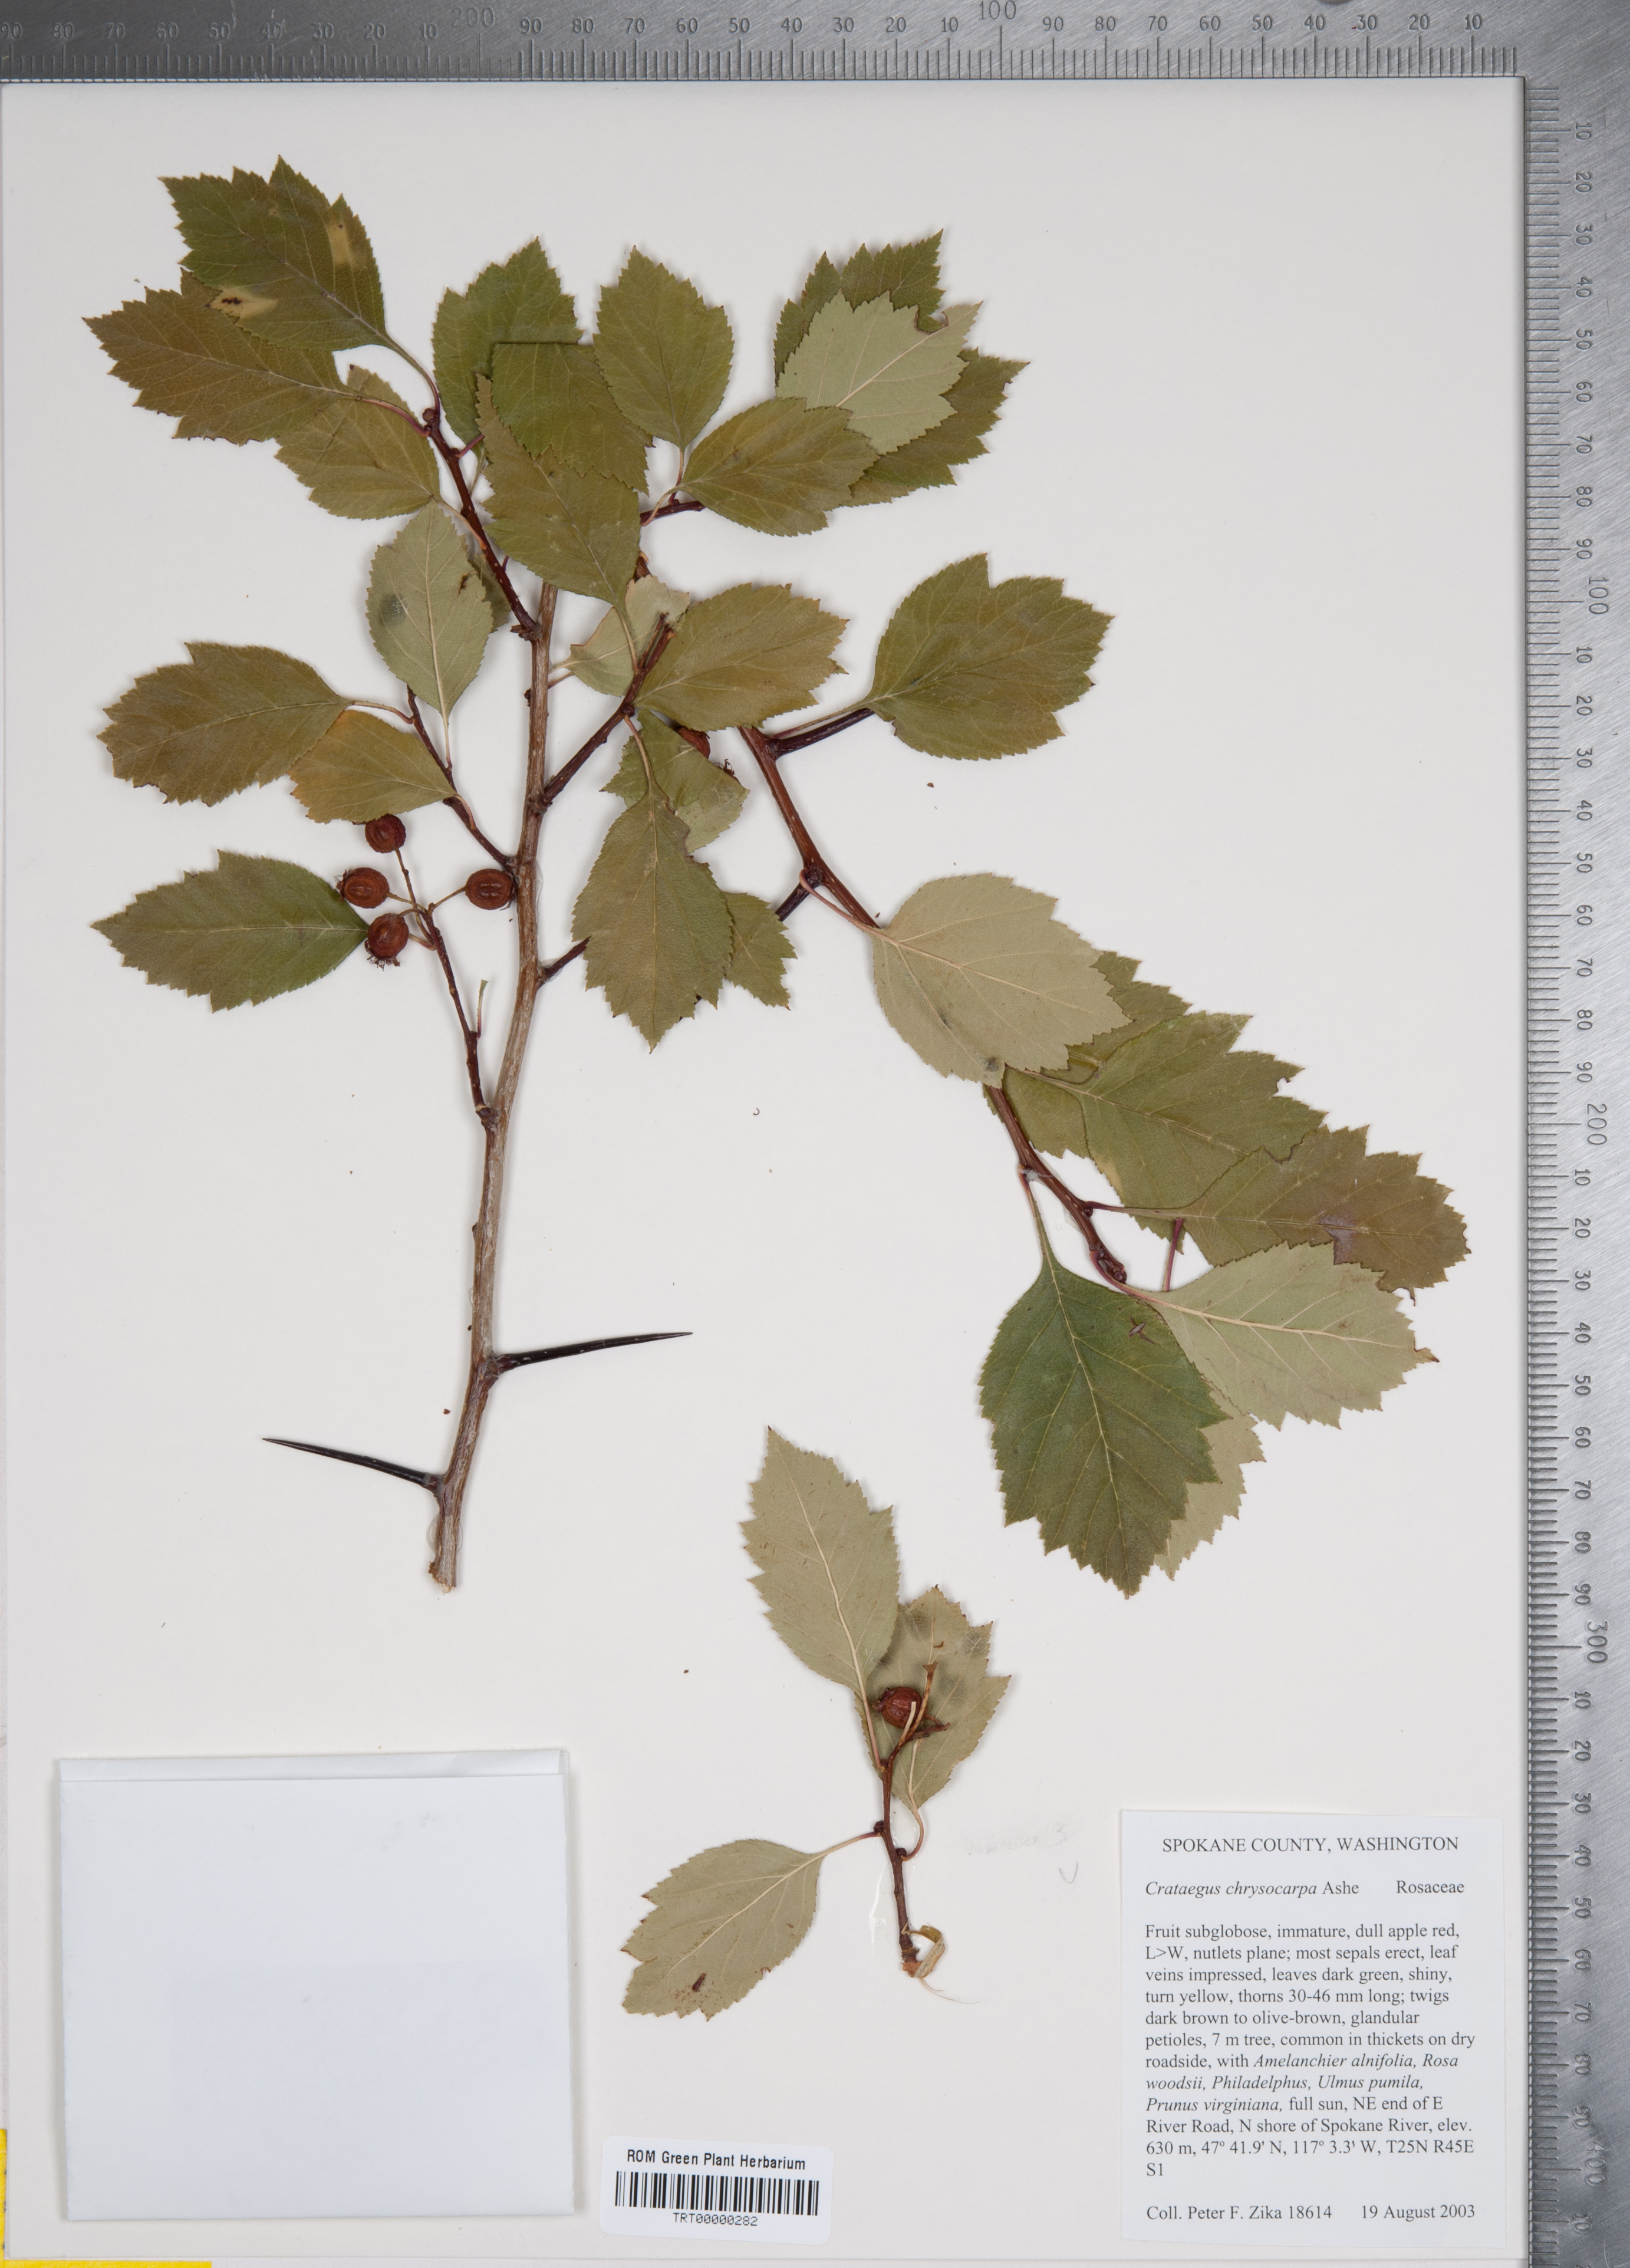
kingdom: Plantae
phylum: Tracheophyta
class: Magnoliopsida
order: Rosales
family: Rosaceae
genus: Crataegus
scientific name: Crataegus chrysocarpa
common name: Fire-berry hawthorn
